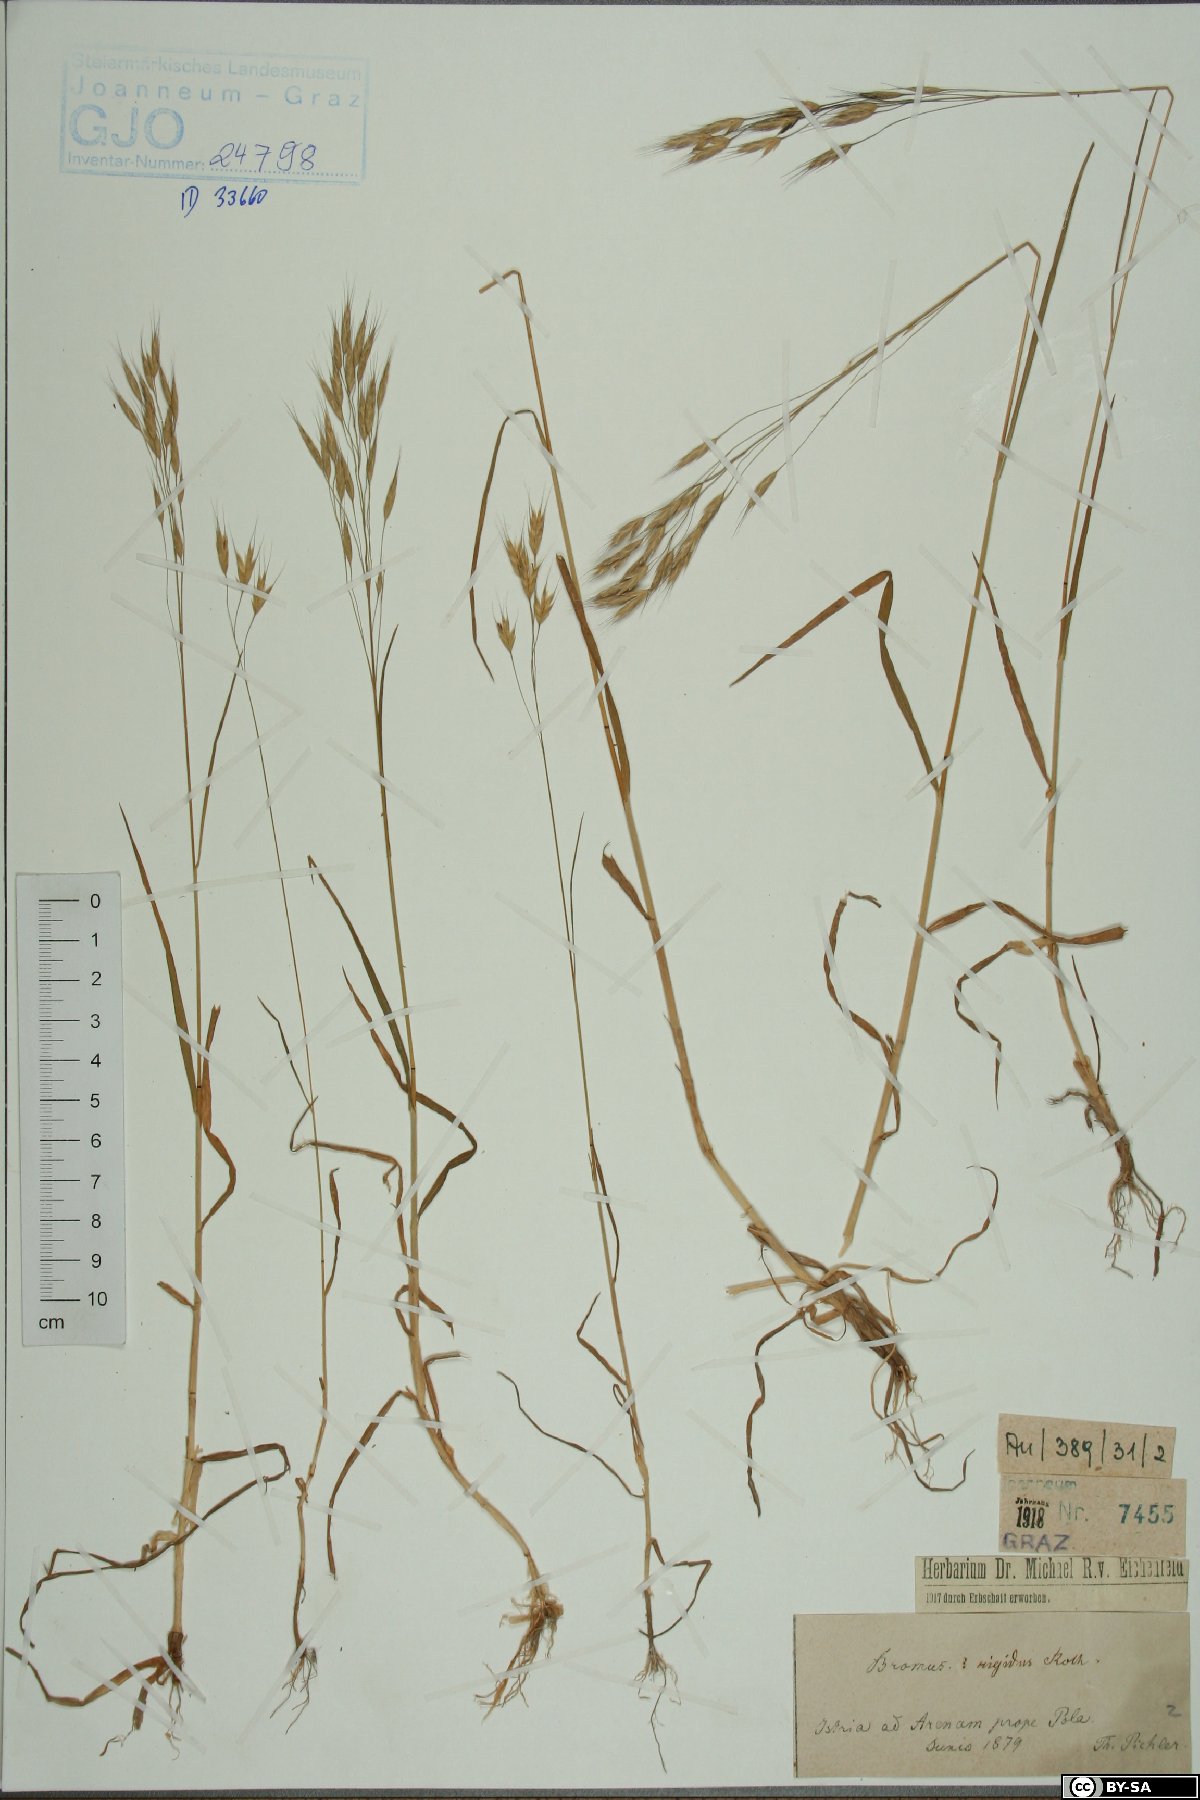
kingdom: Plantae
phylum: Tracheophyta
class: Liliopsida
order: Poales
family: Poaceae
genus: Bromus
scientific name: Bromus rigidus
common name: Ripgut brome
